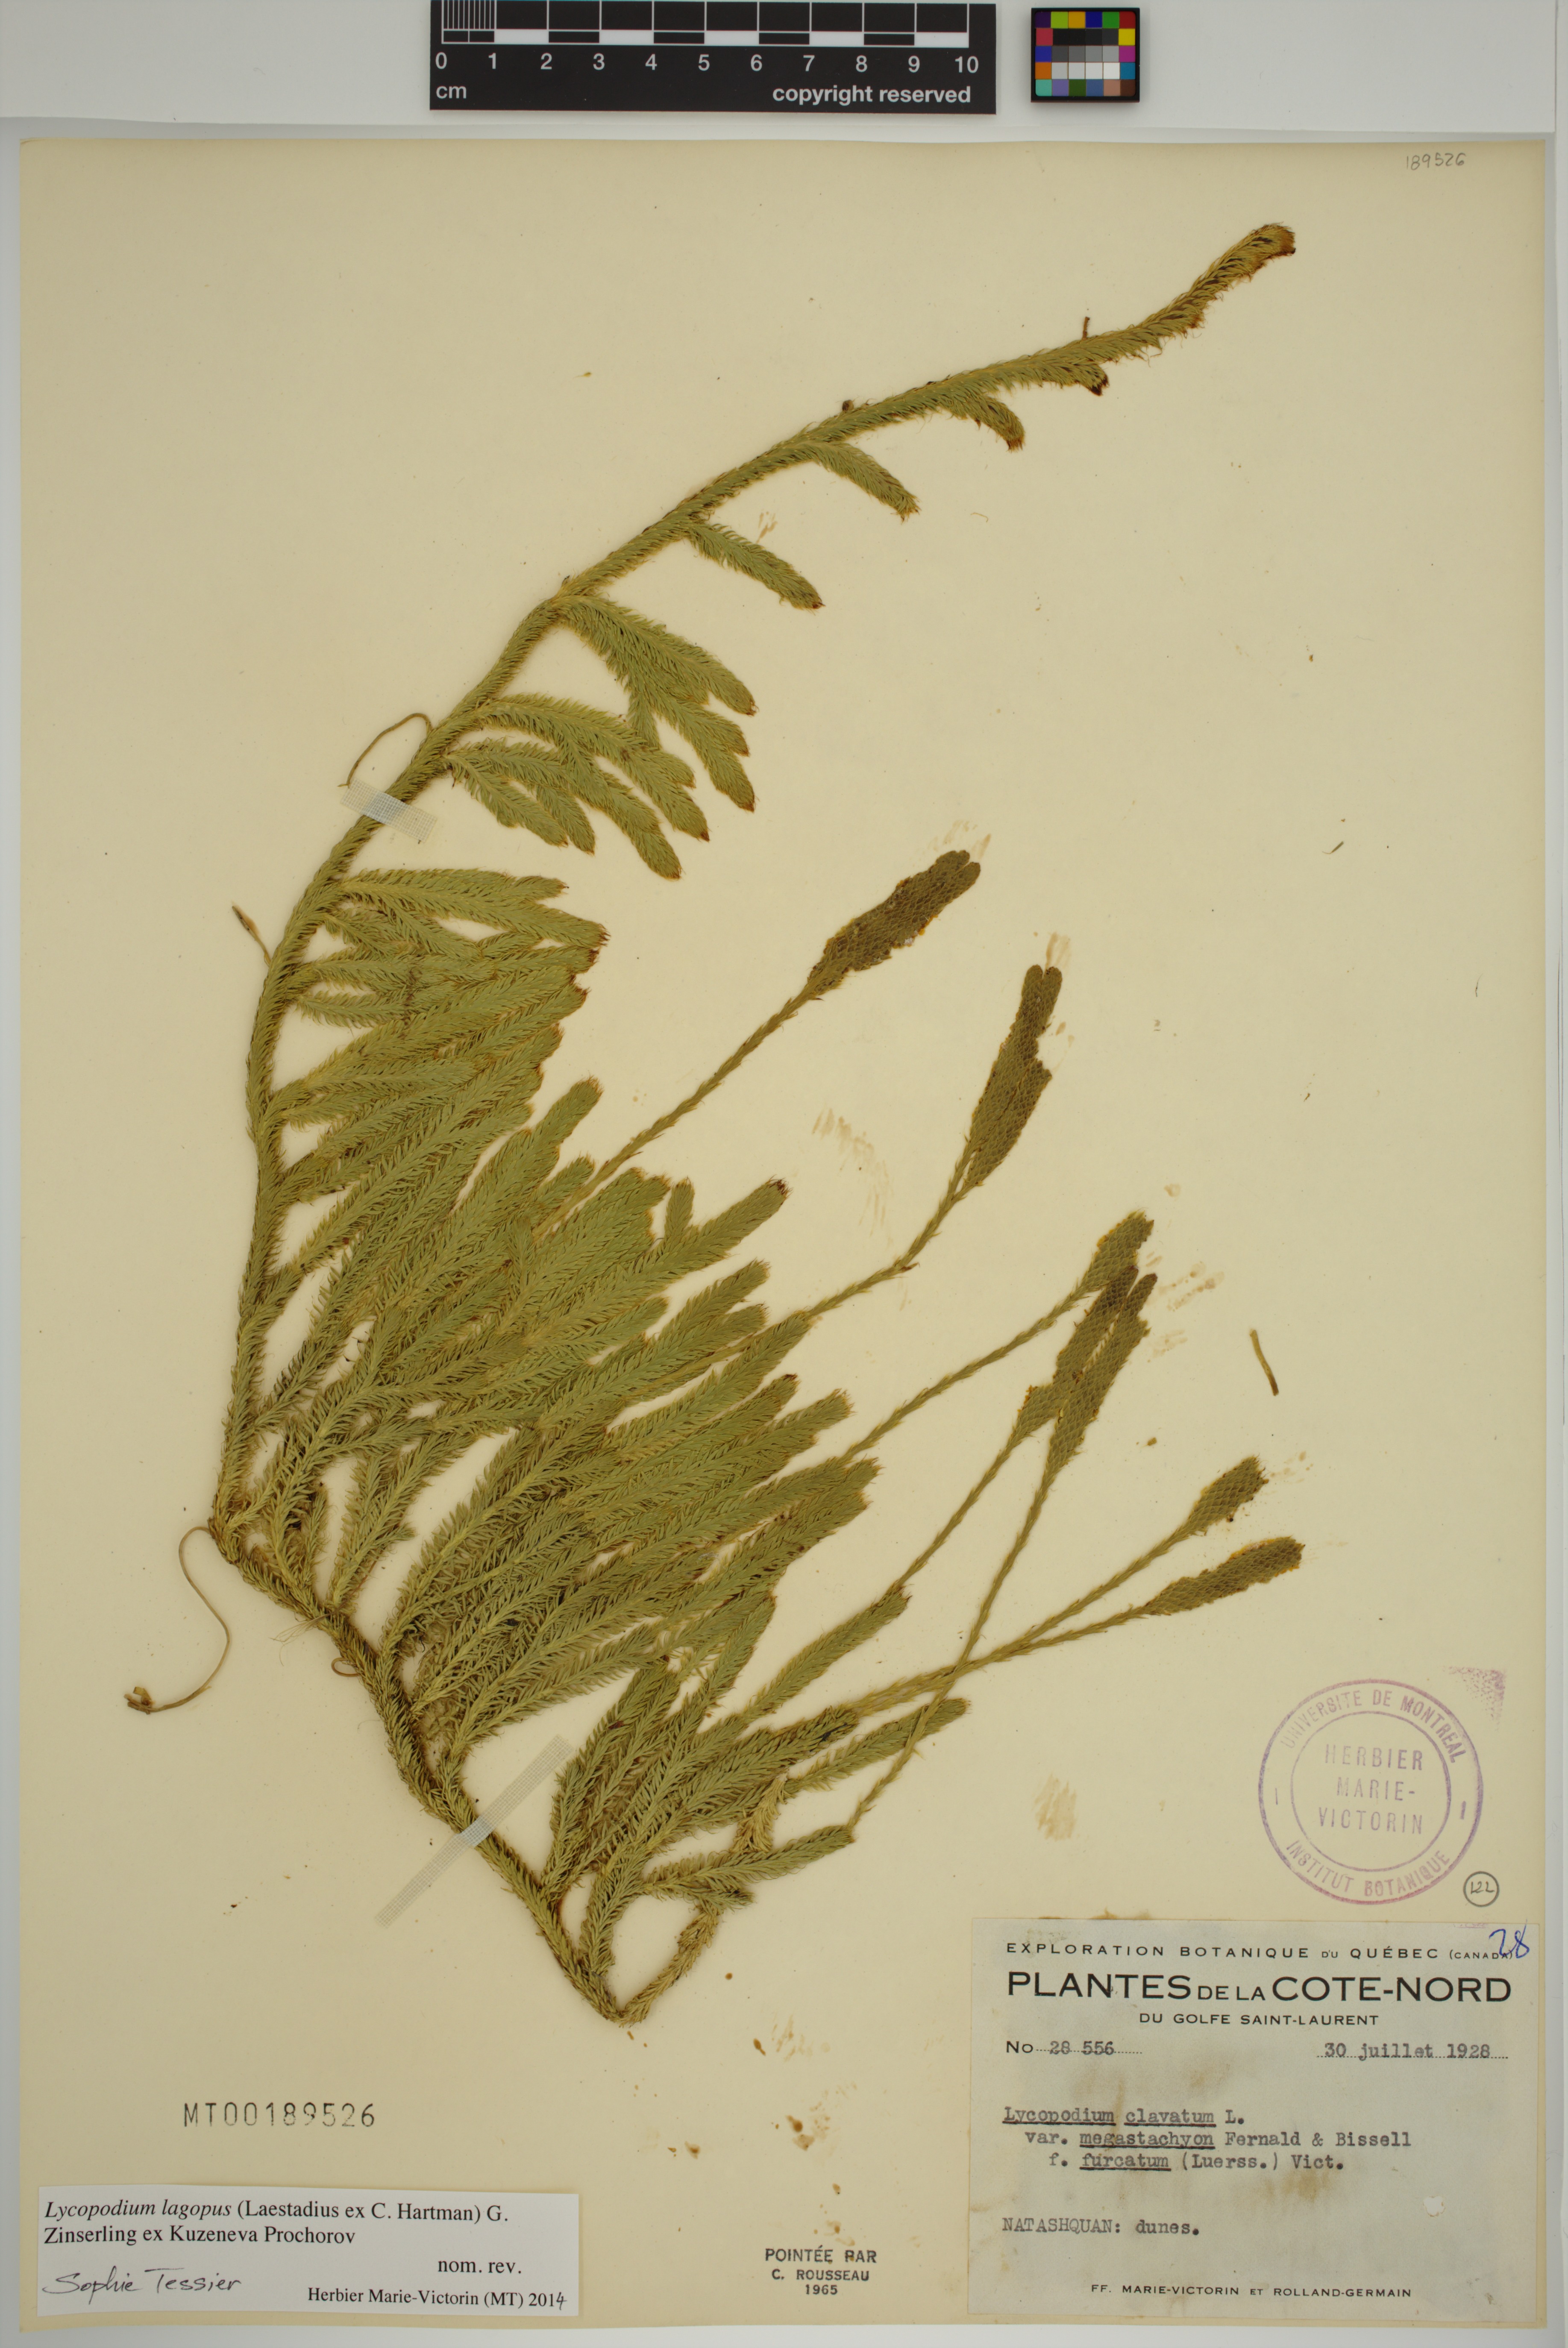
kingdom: Plantae
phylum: Tracheophyta
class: Lycopodiopsida
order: Lycopodiales
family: Lycopodiaceae
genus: Lycopodium
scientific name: Lycopodium lagopus
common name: One-cone clubmoss
